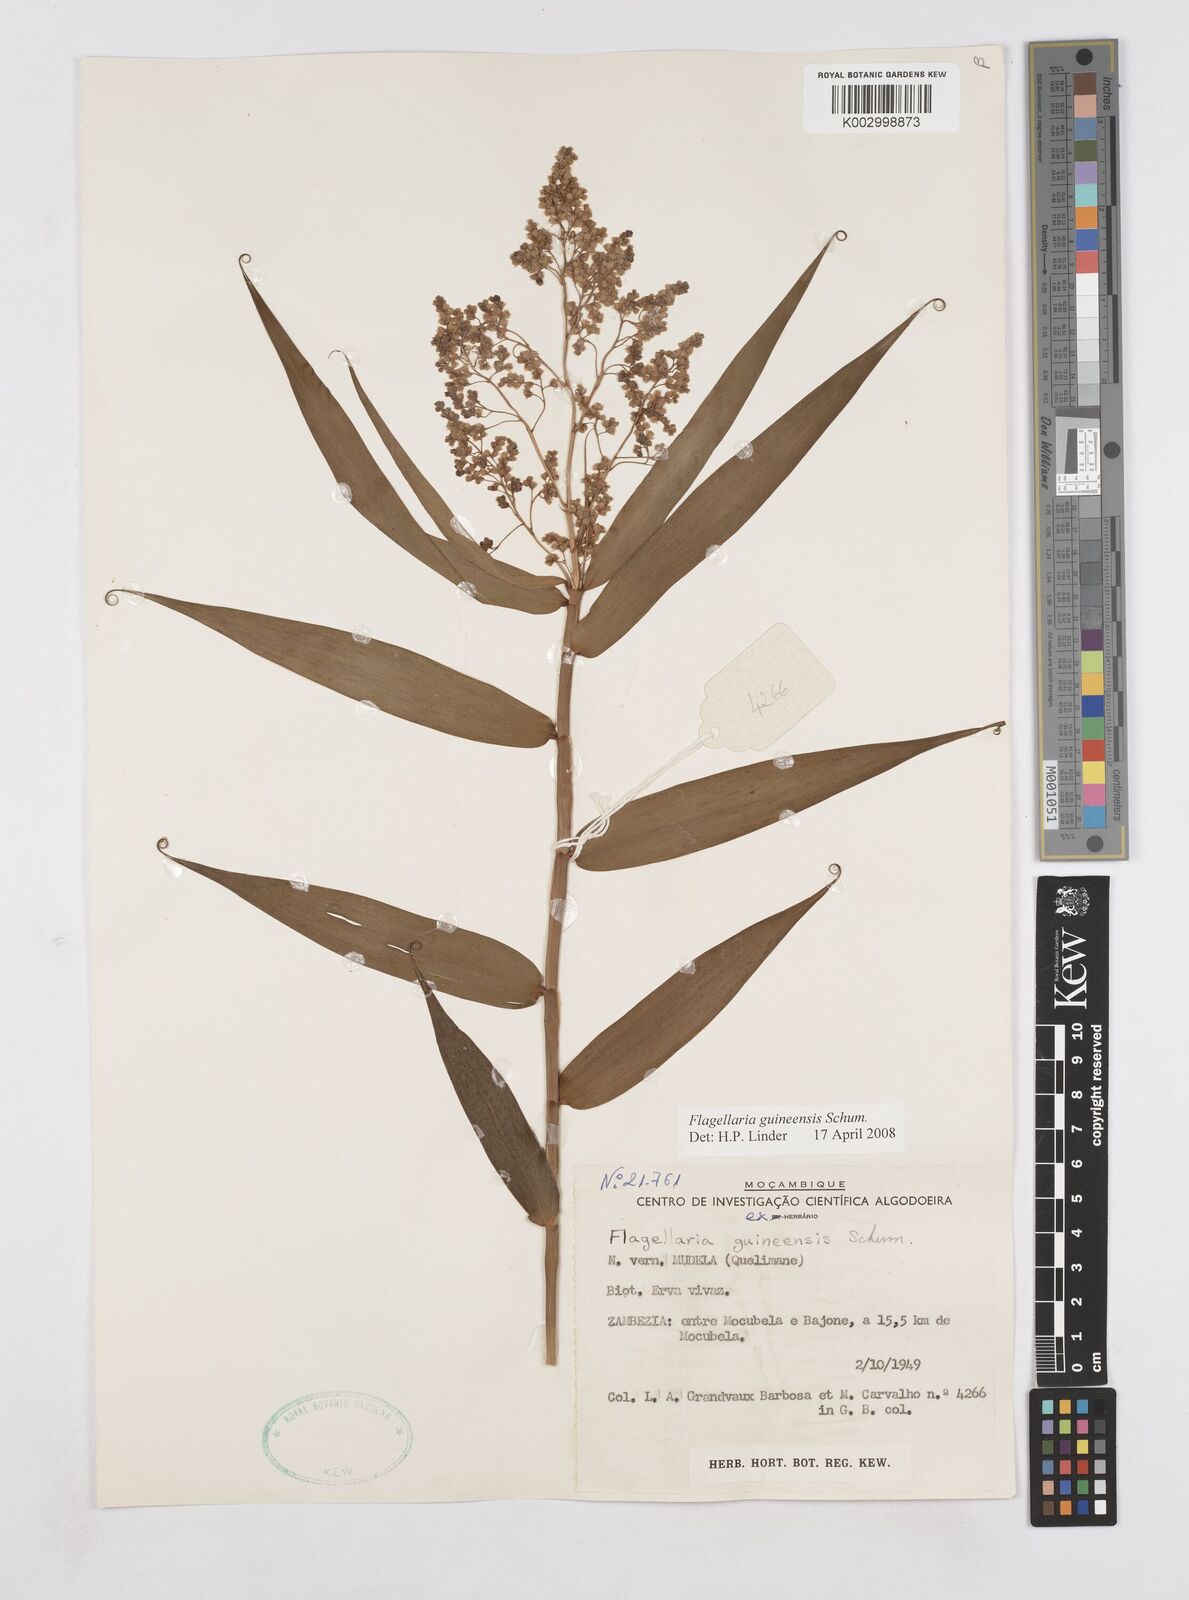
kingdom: Plantae
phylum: Tracheophyta
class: Liliopsida
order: Poales
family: Flagellariaceae
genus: Flagellaria
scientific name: Flagellaria guineensis
